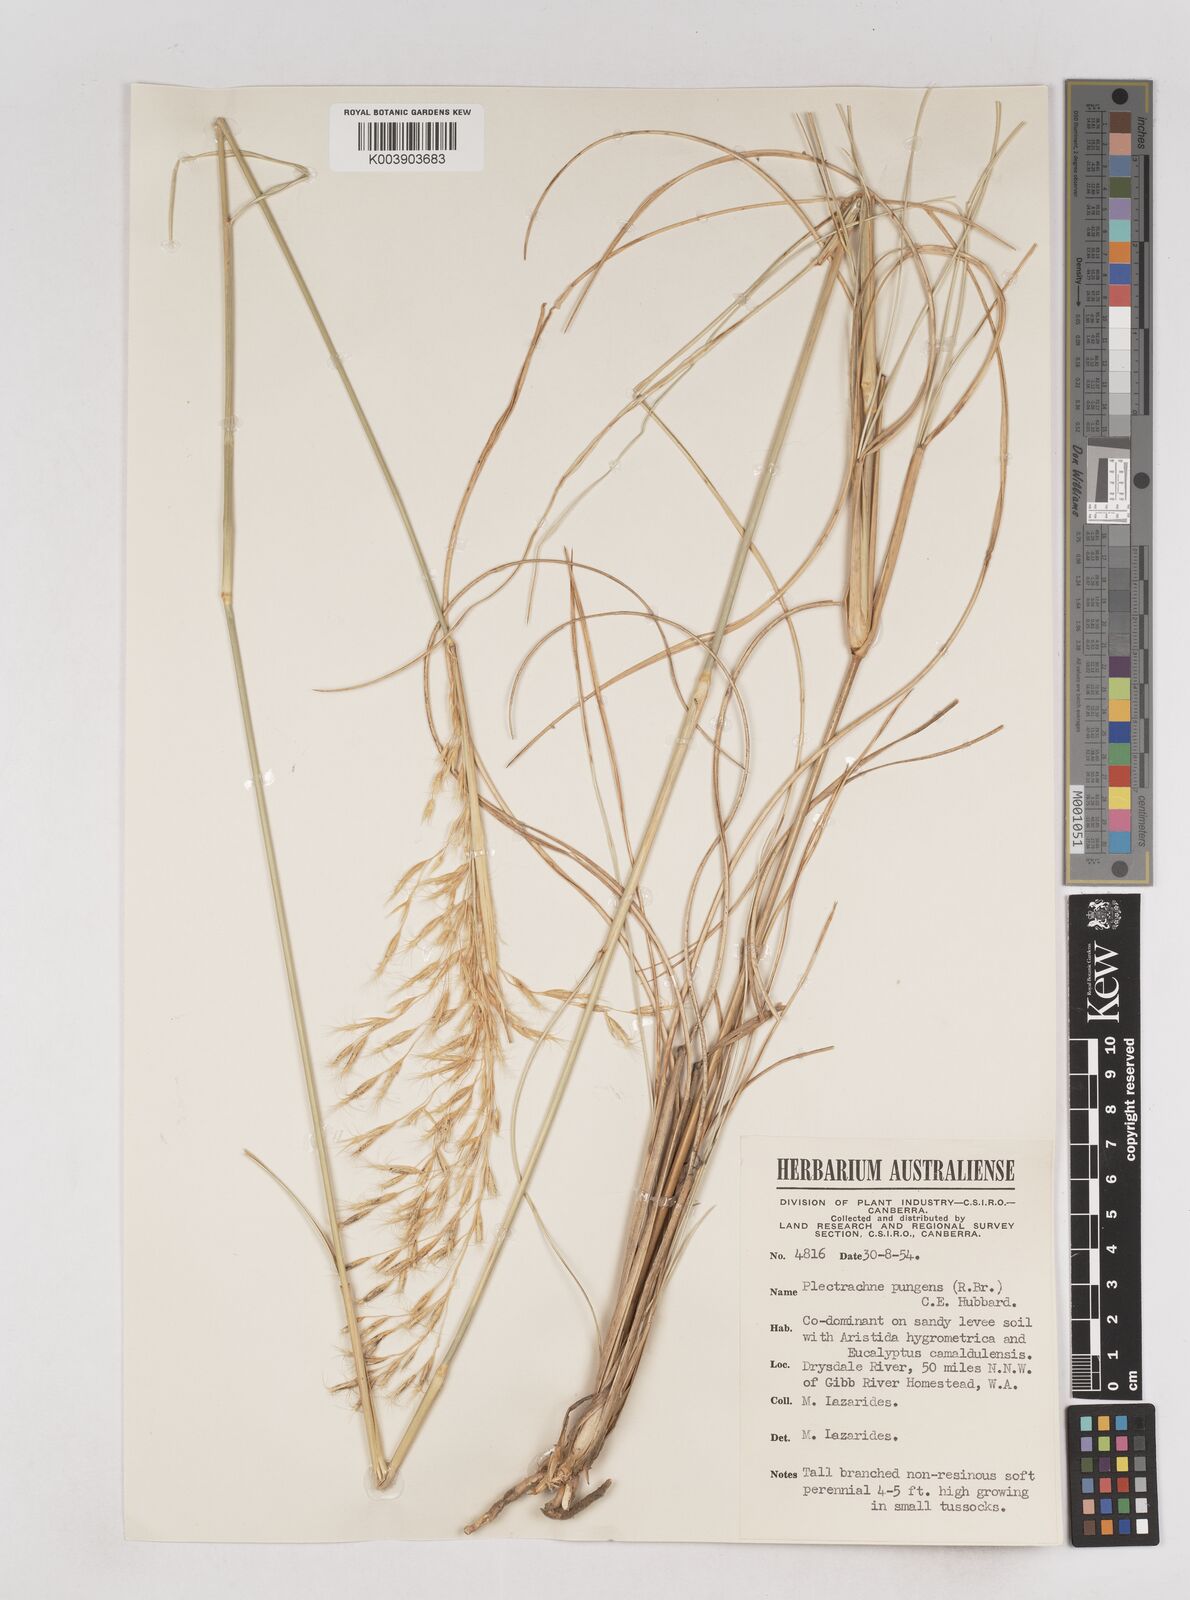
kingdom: Plantae
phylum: Tracheophyta
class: Liliopsida
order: Poales
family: Poaceae
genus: Triodia
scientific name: Triodia bitextura
